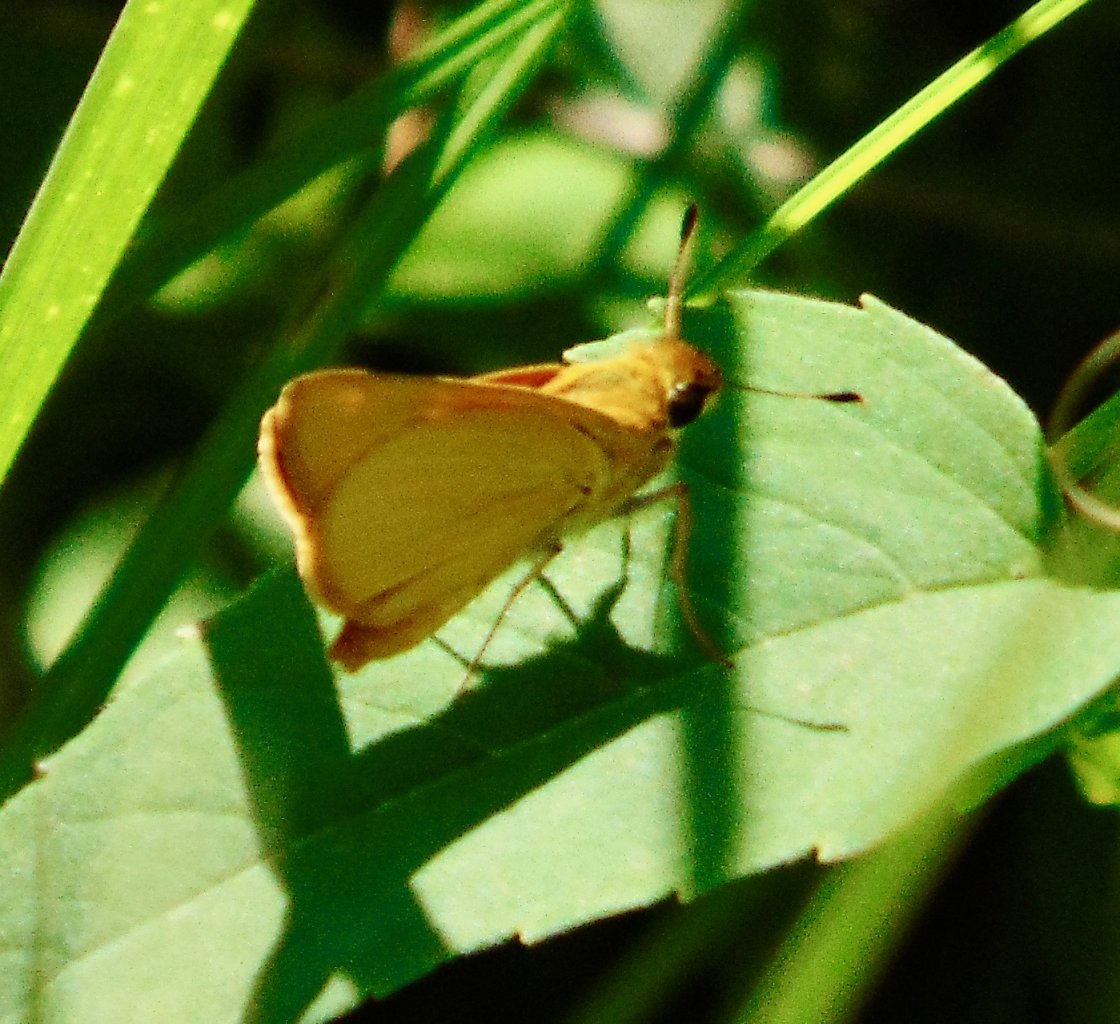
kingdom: Animalia
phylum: Arthropoda
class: Insecta
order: Lepidoptera
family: Hesperiidae
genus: Atrytone
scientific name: Atrytone delaware
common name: Delaware Skipper
